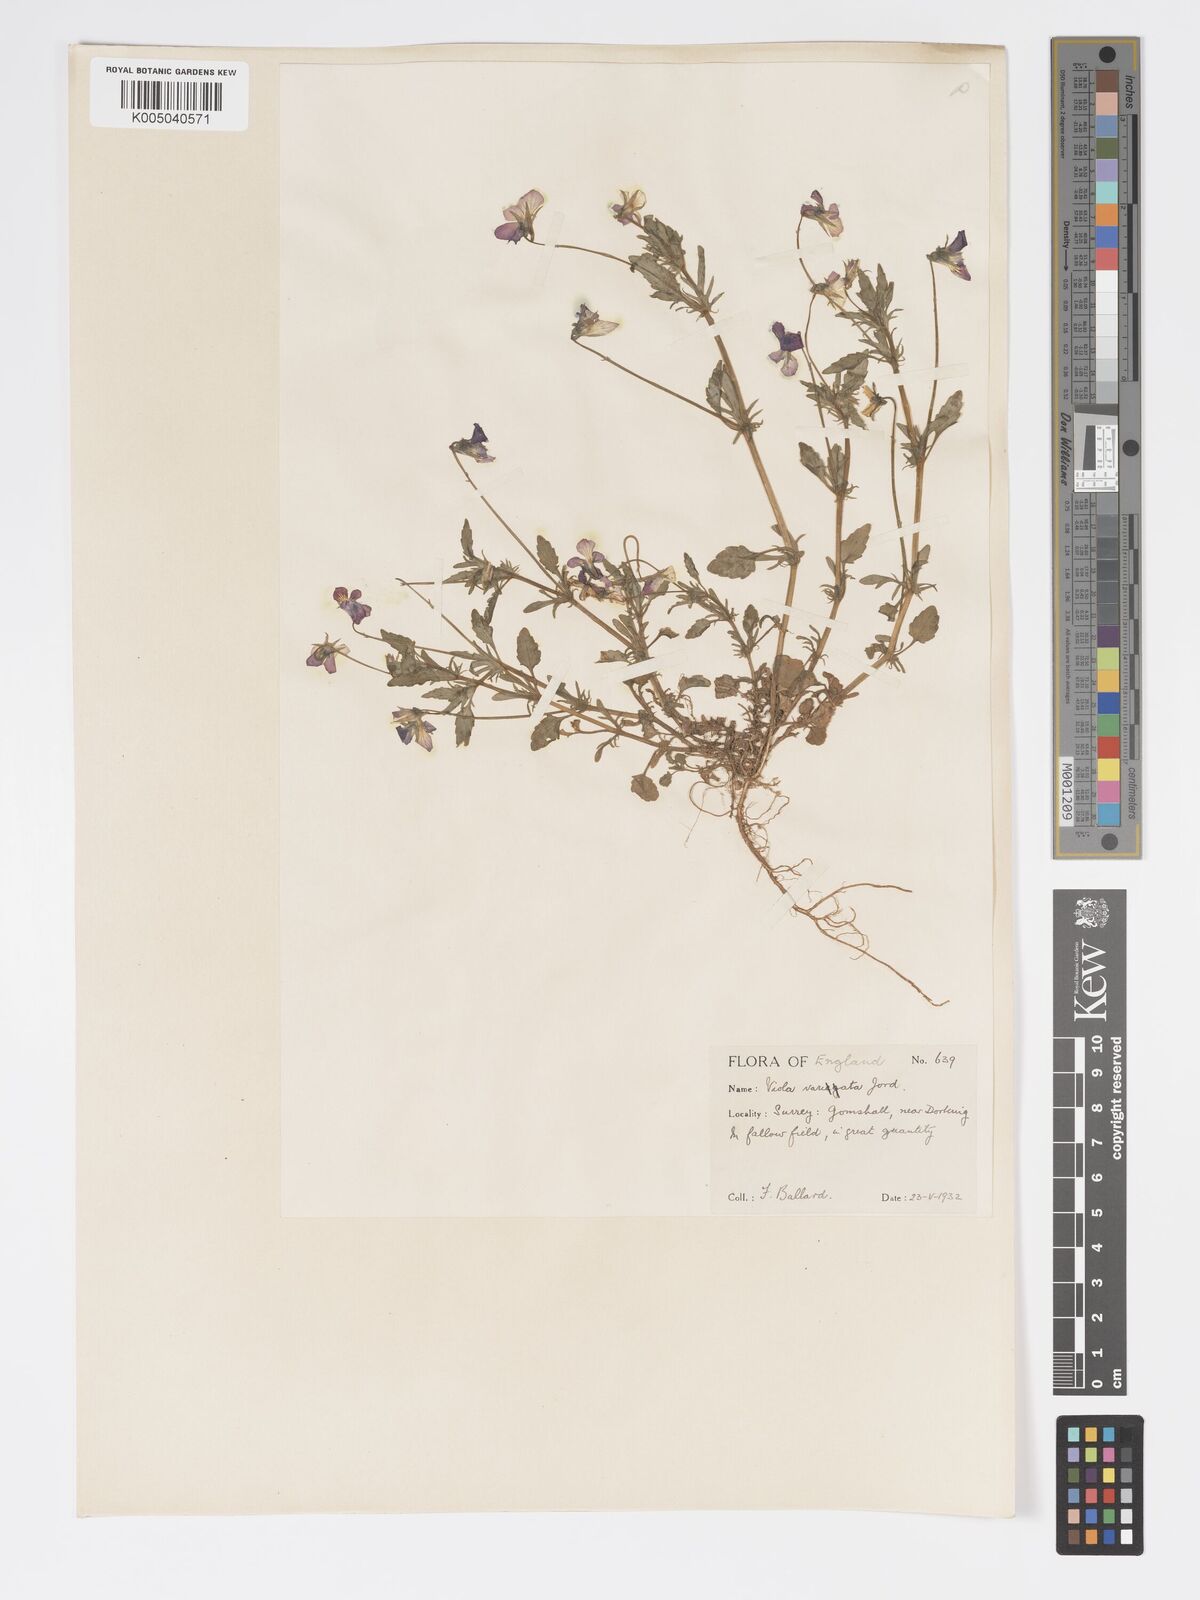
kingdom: Plantae
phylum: Tracheophyta
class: Magnoliopsida
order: Malpighiales
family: Violaceae
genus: Viola
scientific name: Viola arvensis
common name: Field pansy
